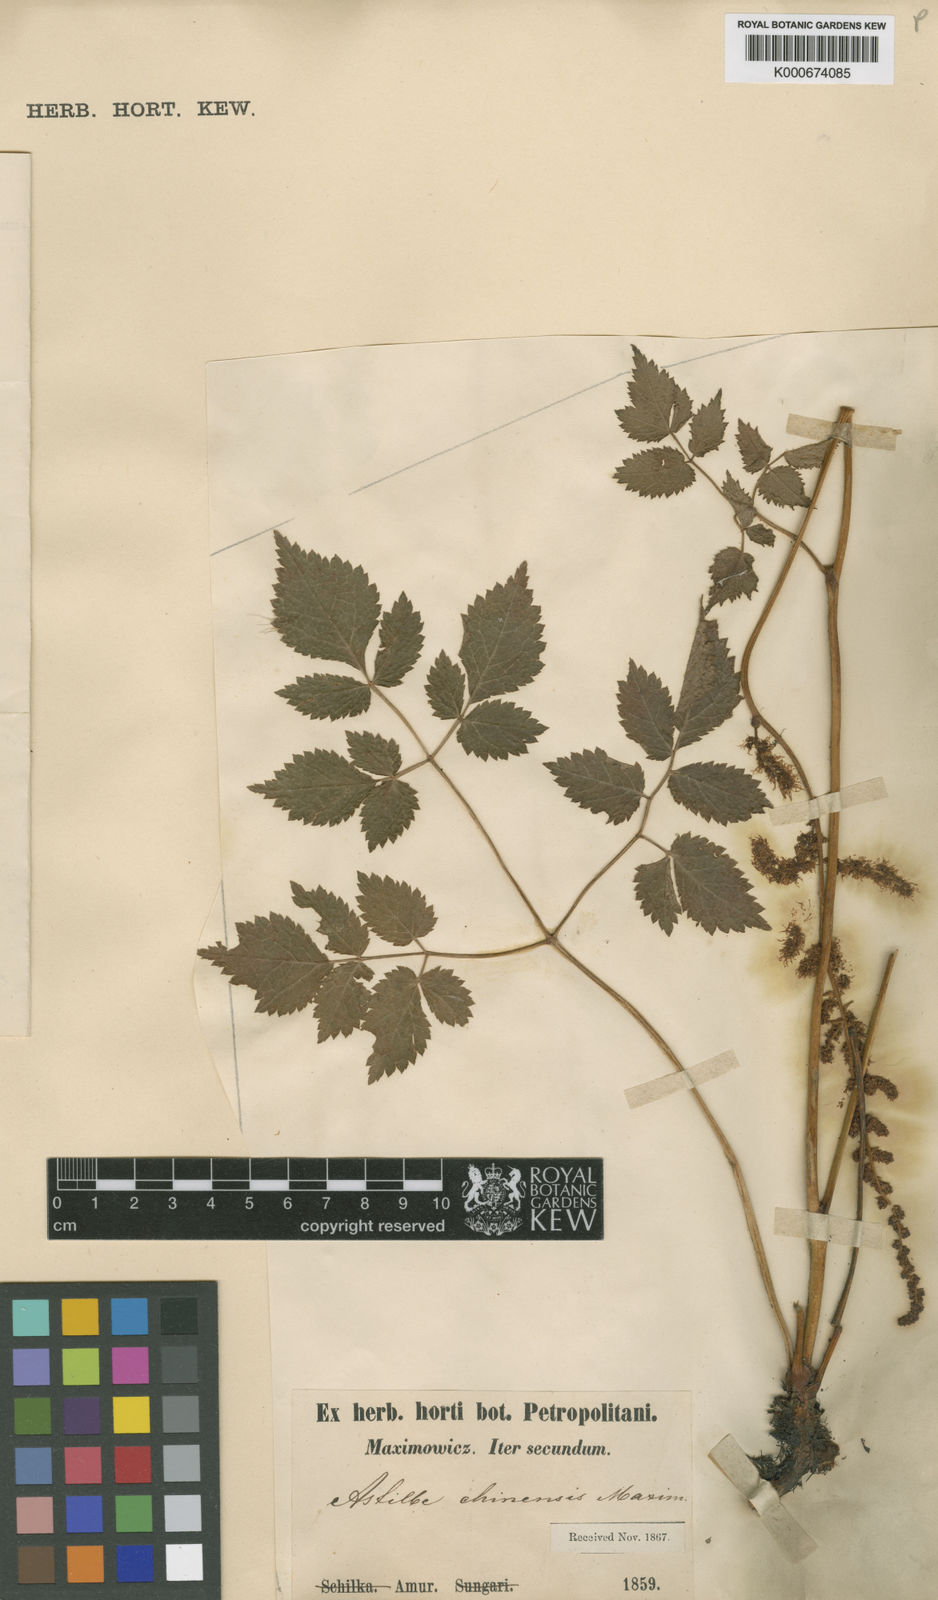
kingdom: Plantae
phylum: Tracheophyta
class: Magnoliopsida
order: Saxifragales
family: Saxifragaceae
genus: Astilbe
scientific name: Astilbe
